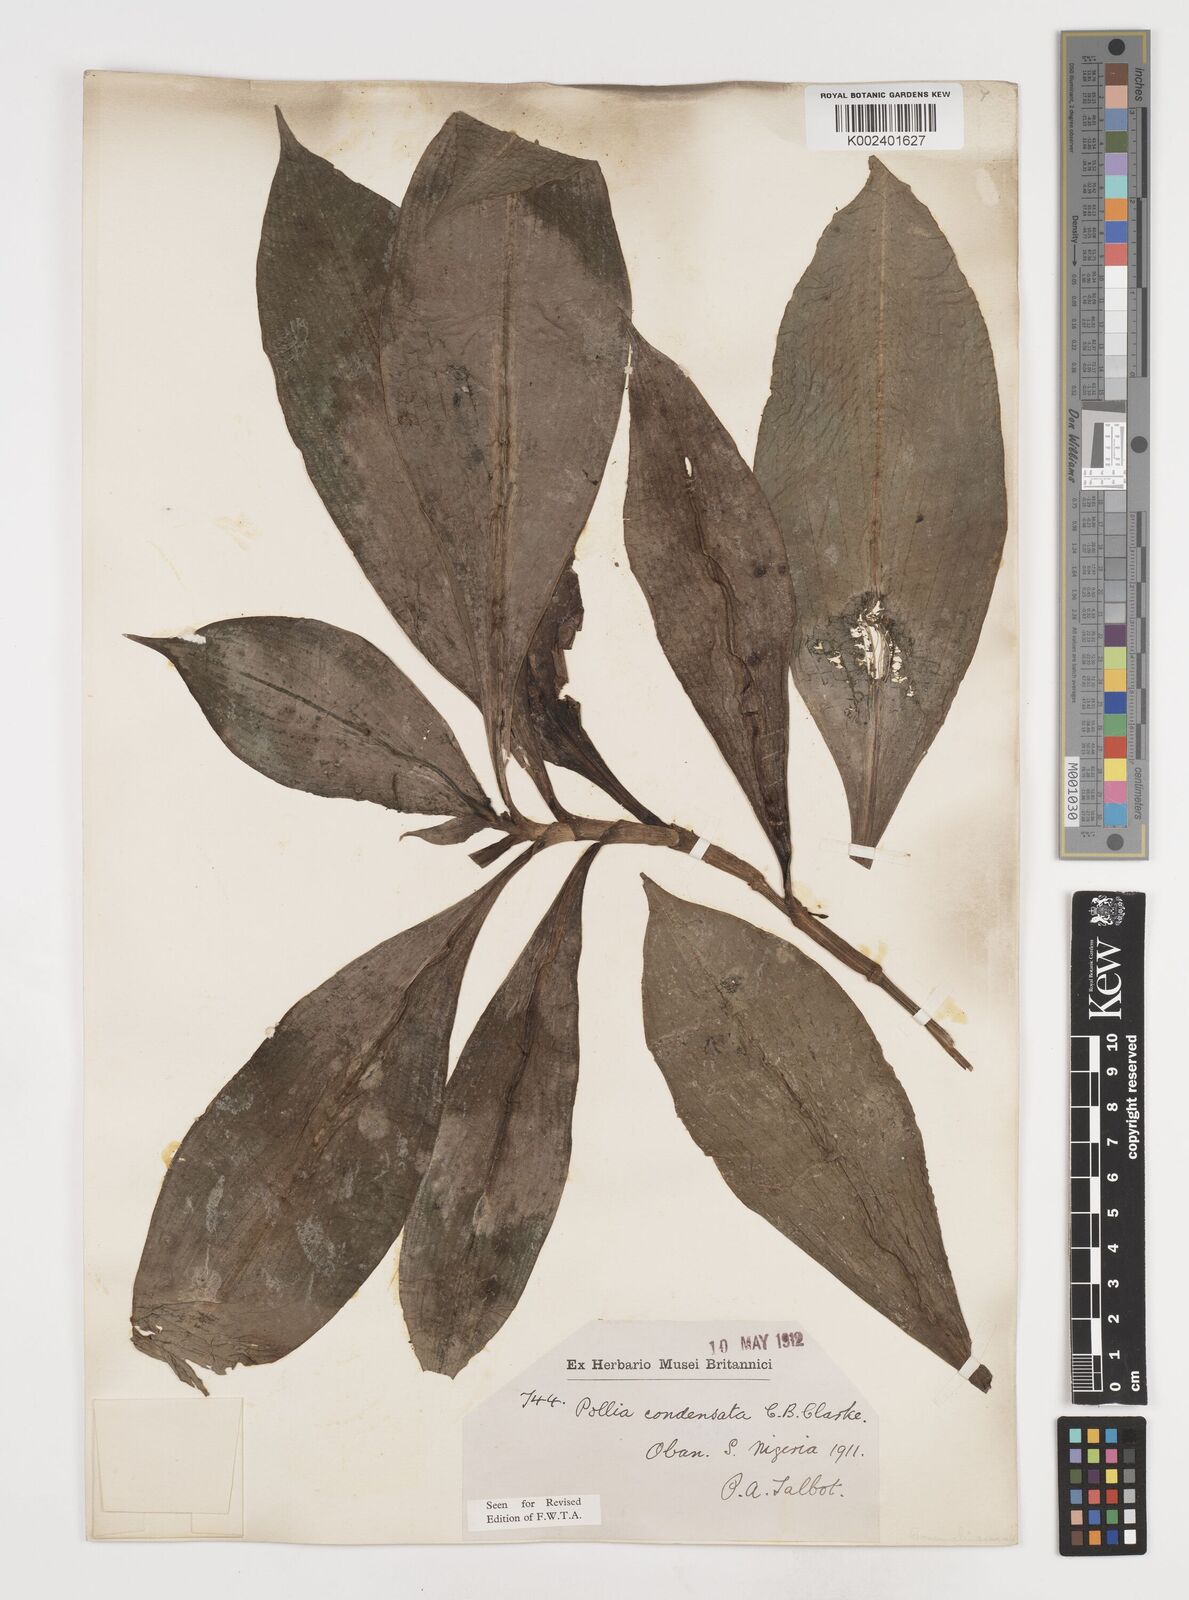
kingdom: Plantae
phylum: Tracheophyta
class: Liliopsida
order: Commelinales
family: Commelinaceae
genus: Pollia
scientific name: Pollia condensata
